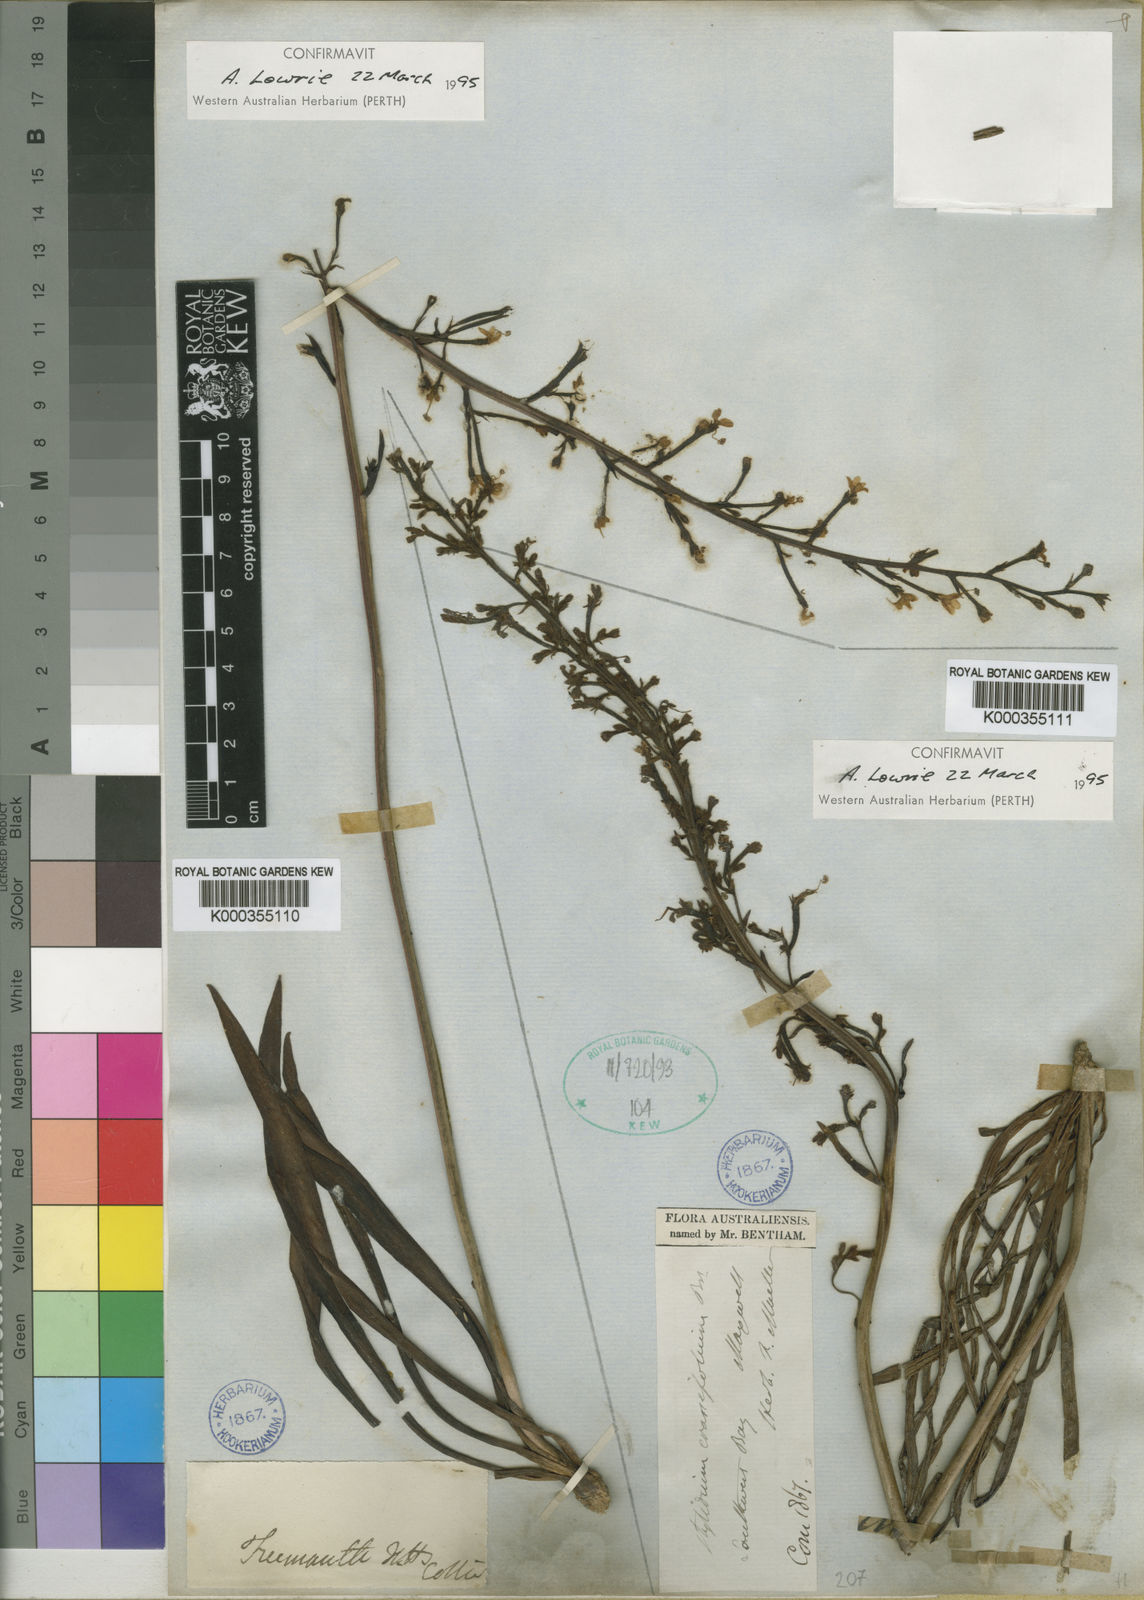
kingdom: Plantae
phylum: Tracheophyta
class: Magnoliopsida
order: Asterales
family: Stylidiaceae
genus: Stylidium
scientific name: Stylidium crassifolium
